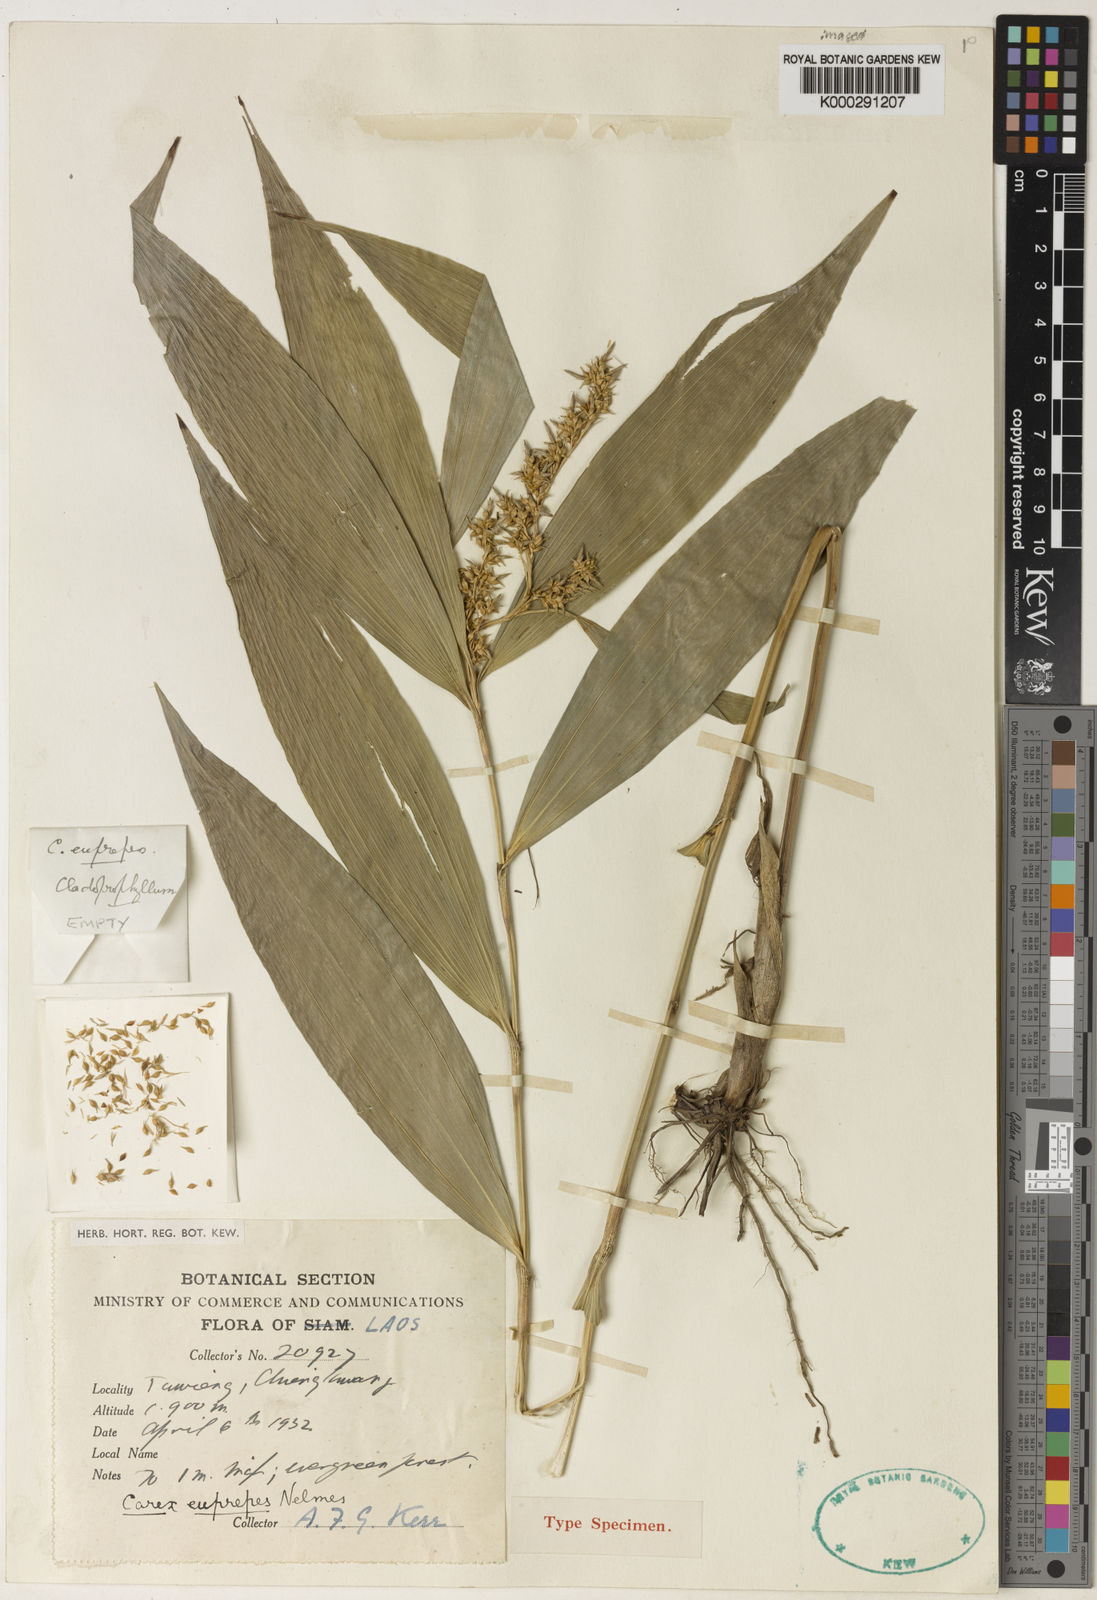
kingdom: Plantae
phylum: Tracheophyta
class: Liliopsida
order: Poales
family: Cyperaceae
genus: Carex
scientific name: Carex euprepes
